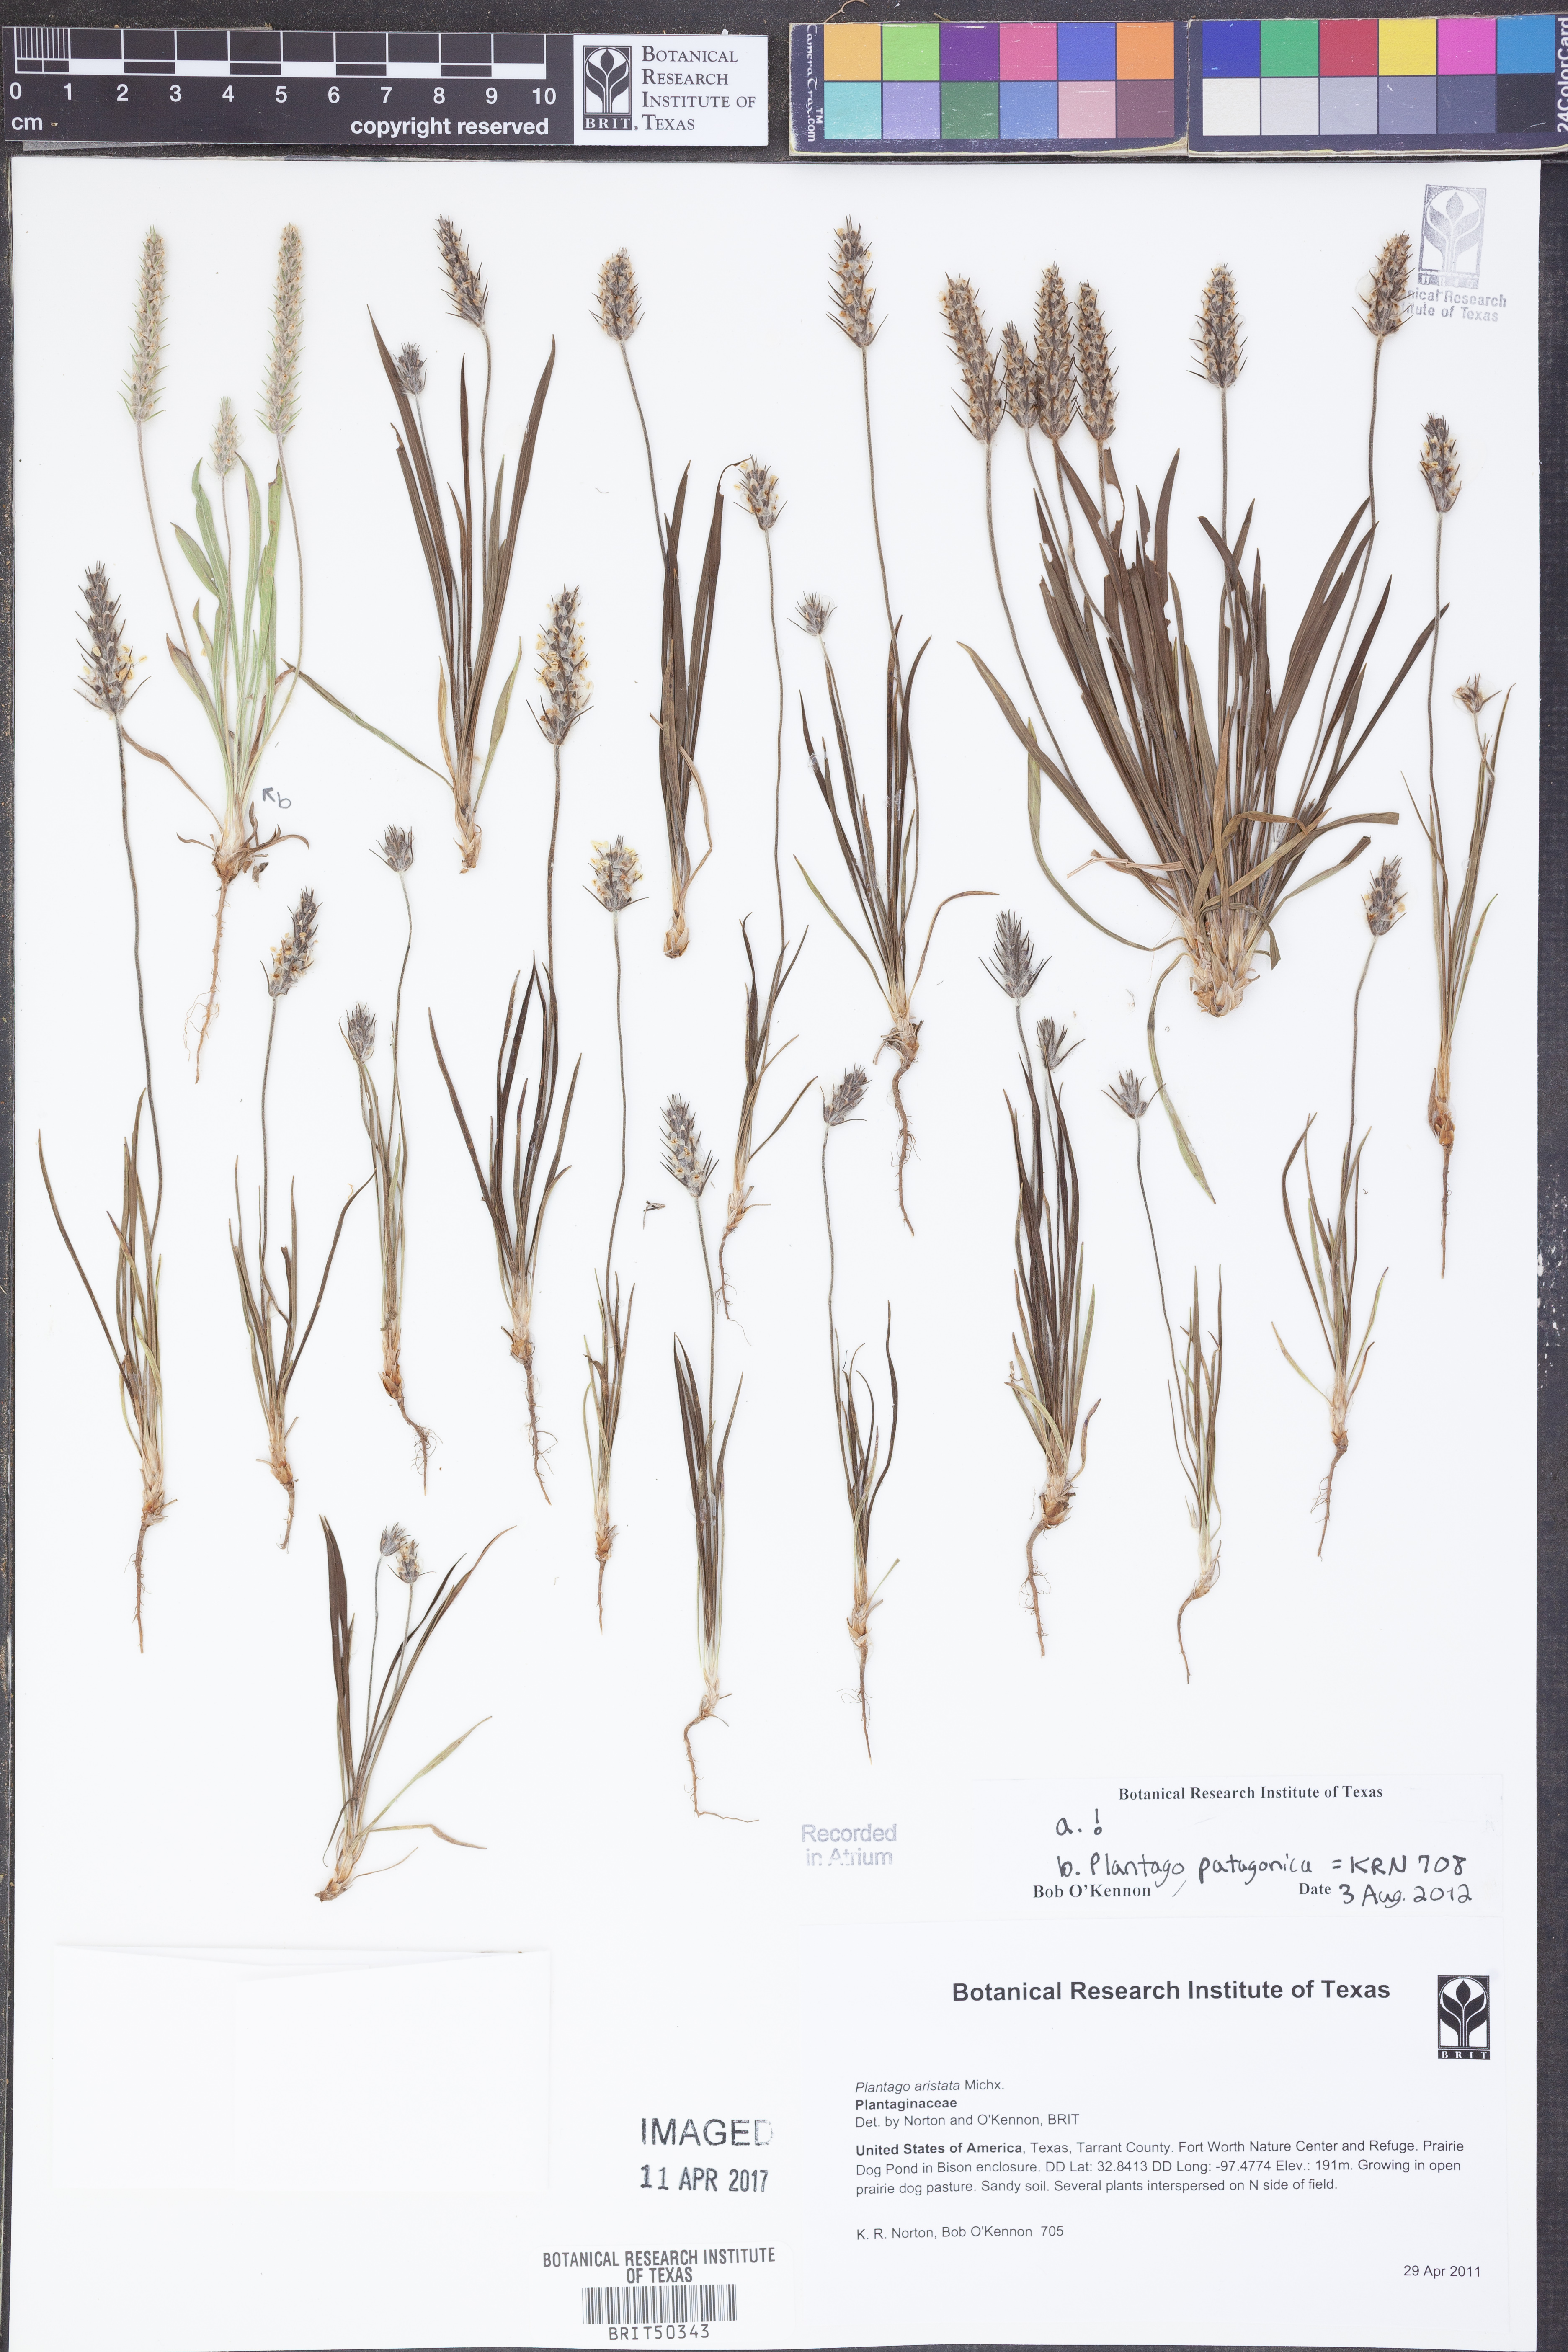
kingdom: Plantae
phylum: Tracheophyta
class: Magnoliopsida
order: Lamiales
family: Plantaginaceae
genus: Plantago
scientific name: Plantago aristata
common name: Bracted plantain
